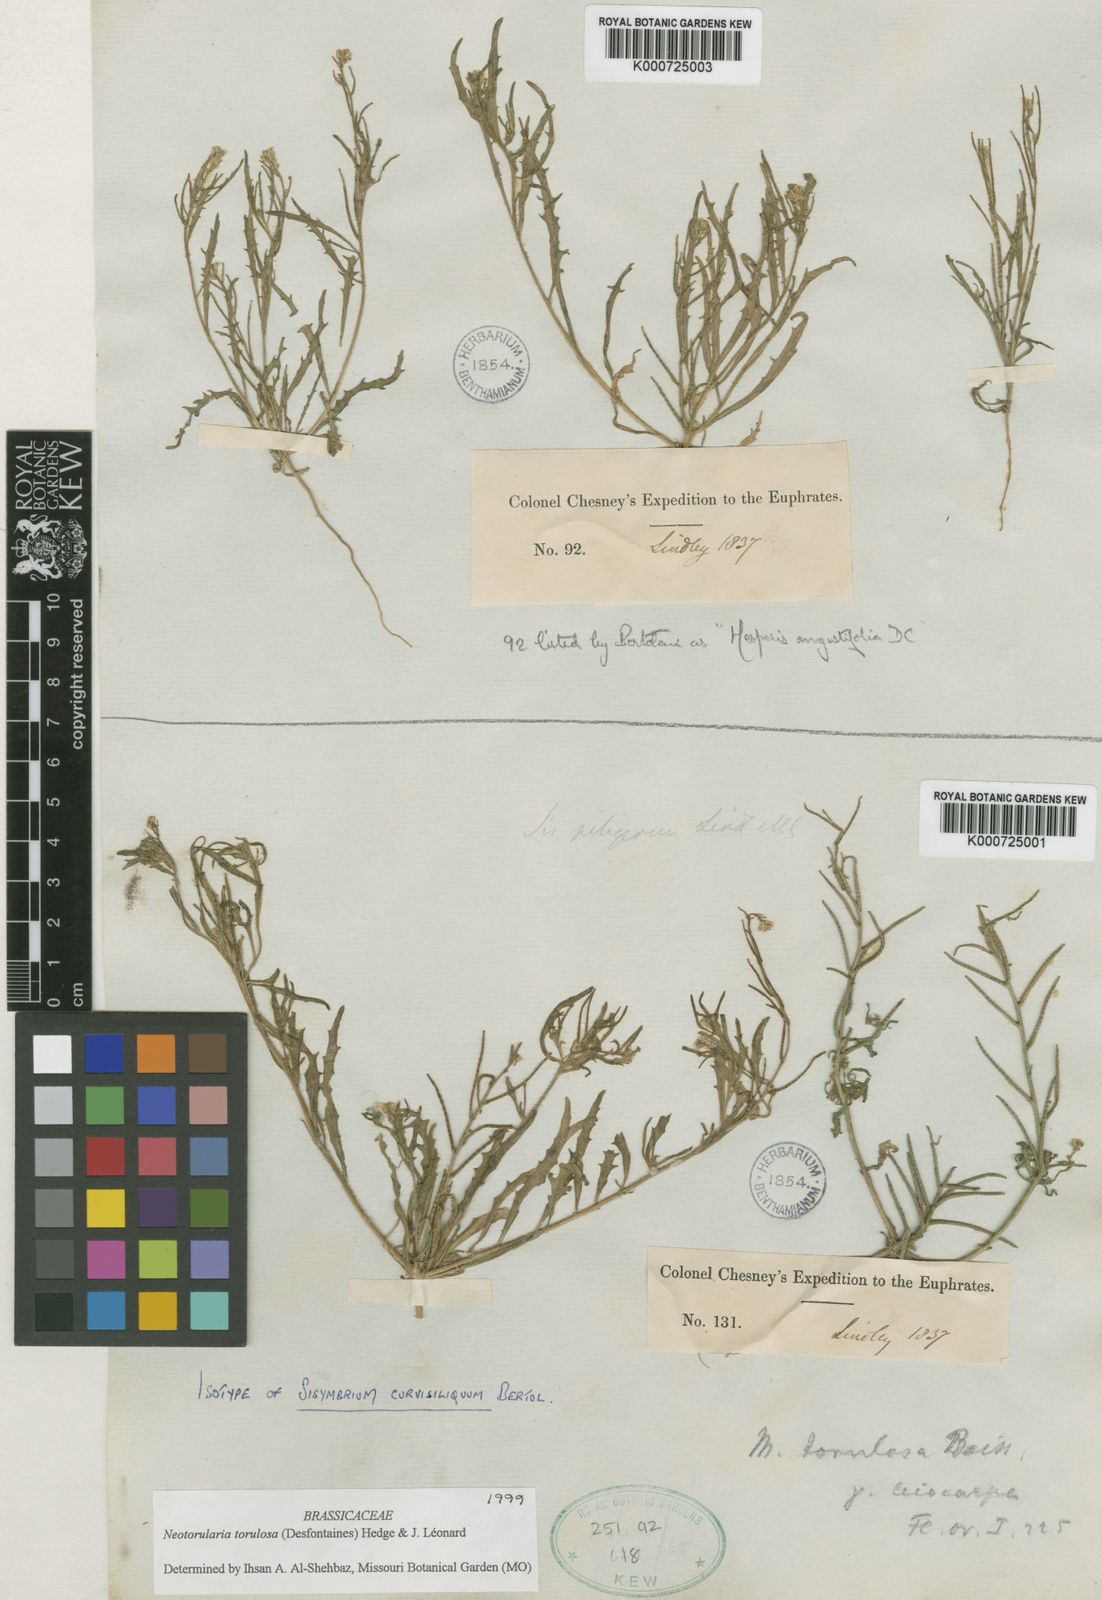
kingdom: Plantae
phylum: Tracheophyta
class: Magnoliopsida
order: Brassicales
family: Brassicaceae
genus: Neotorularia
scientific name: Neotorularia
